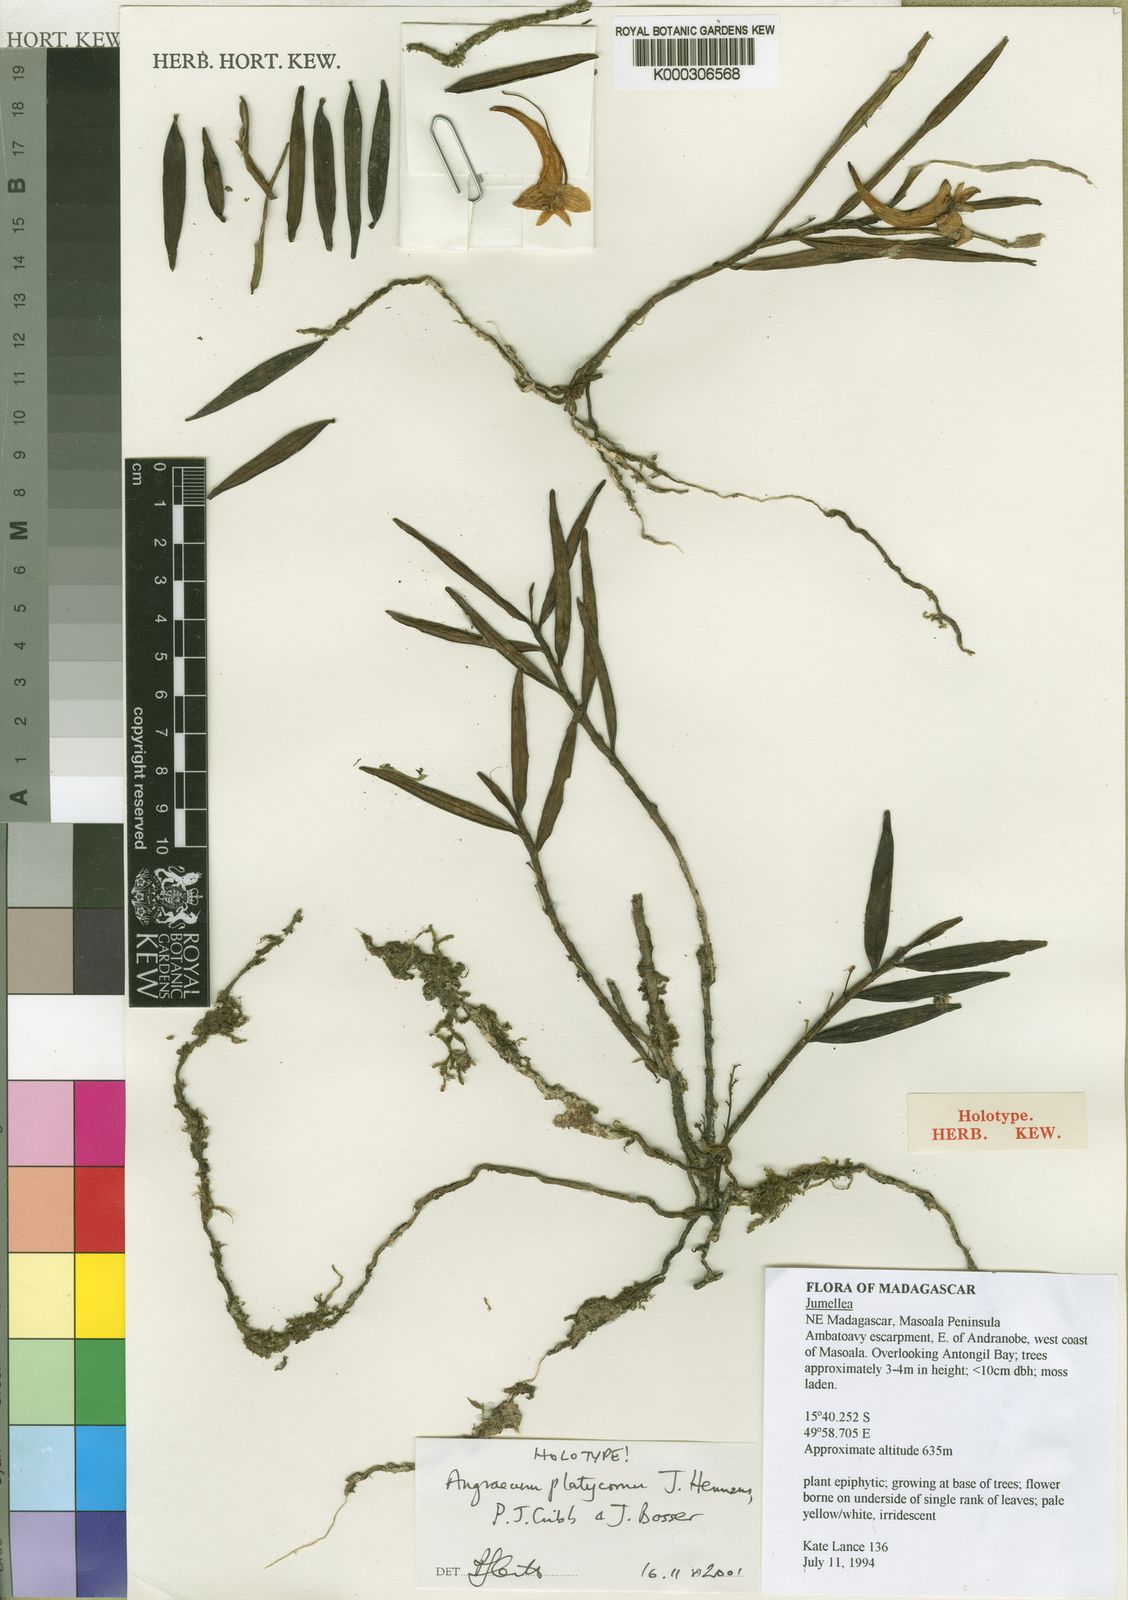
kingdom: Plantae
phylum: Tracheophyta
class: Liliopsida
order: Asparagales
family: Orchidaceae
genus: Angraecum
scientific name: Angraecum platycornu
